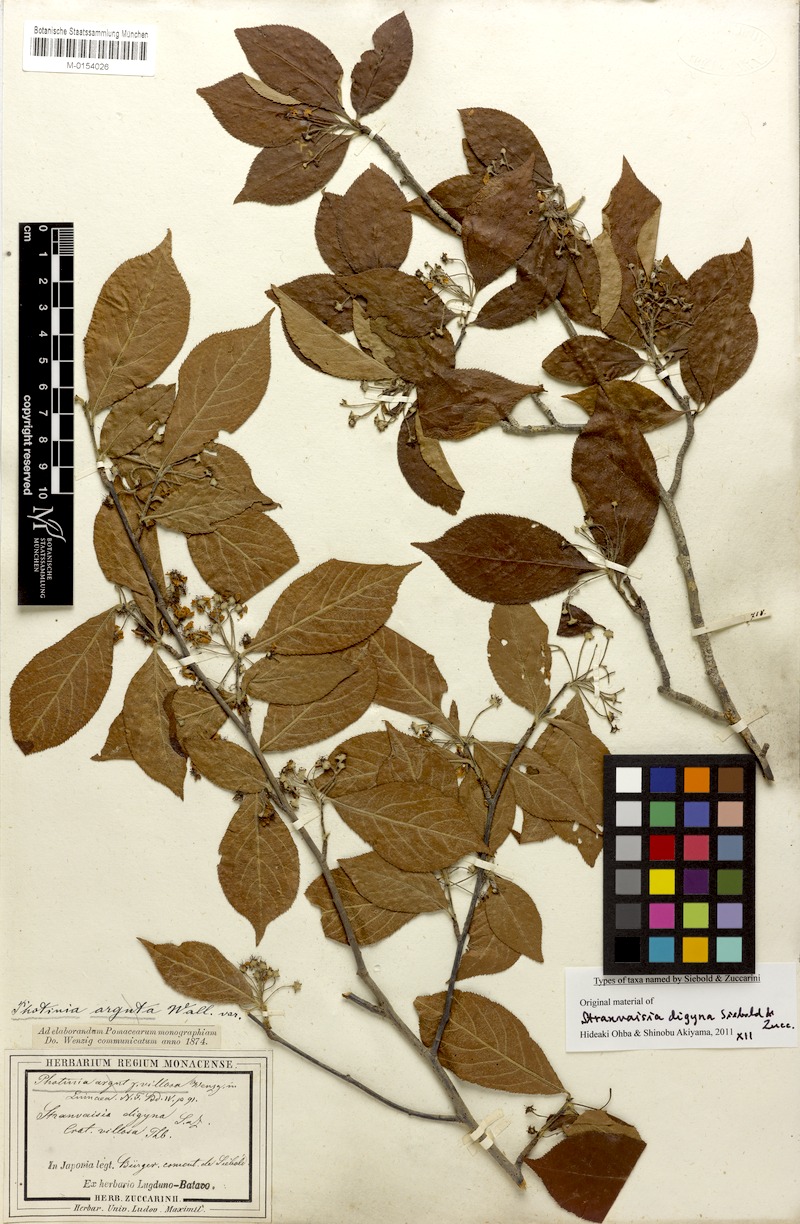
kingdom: Plantae
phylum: Tracheophyta
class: Magnoliopsida
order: Rosales
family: Rosaceae
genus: Pourthiaea
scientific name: Pourthiaea villosa
